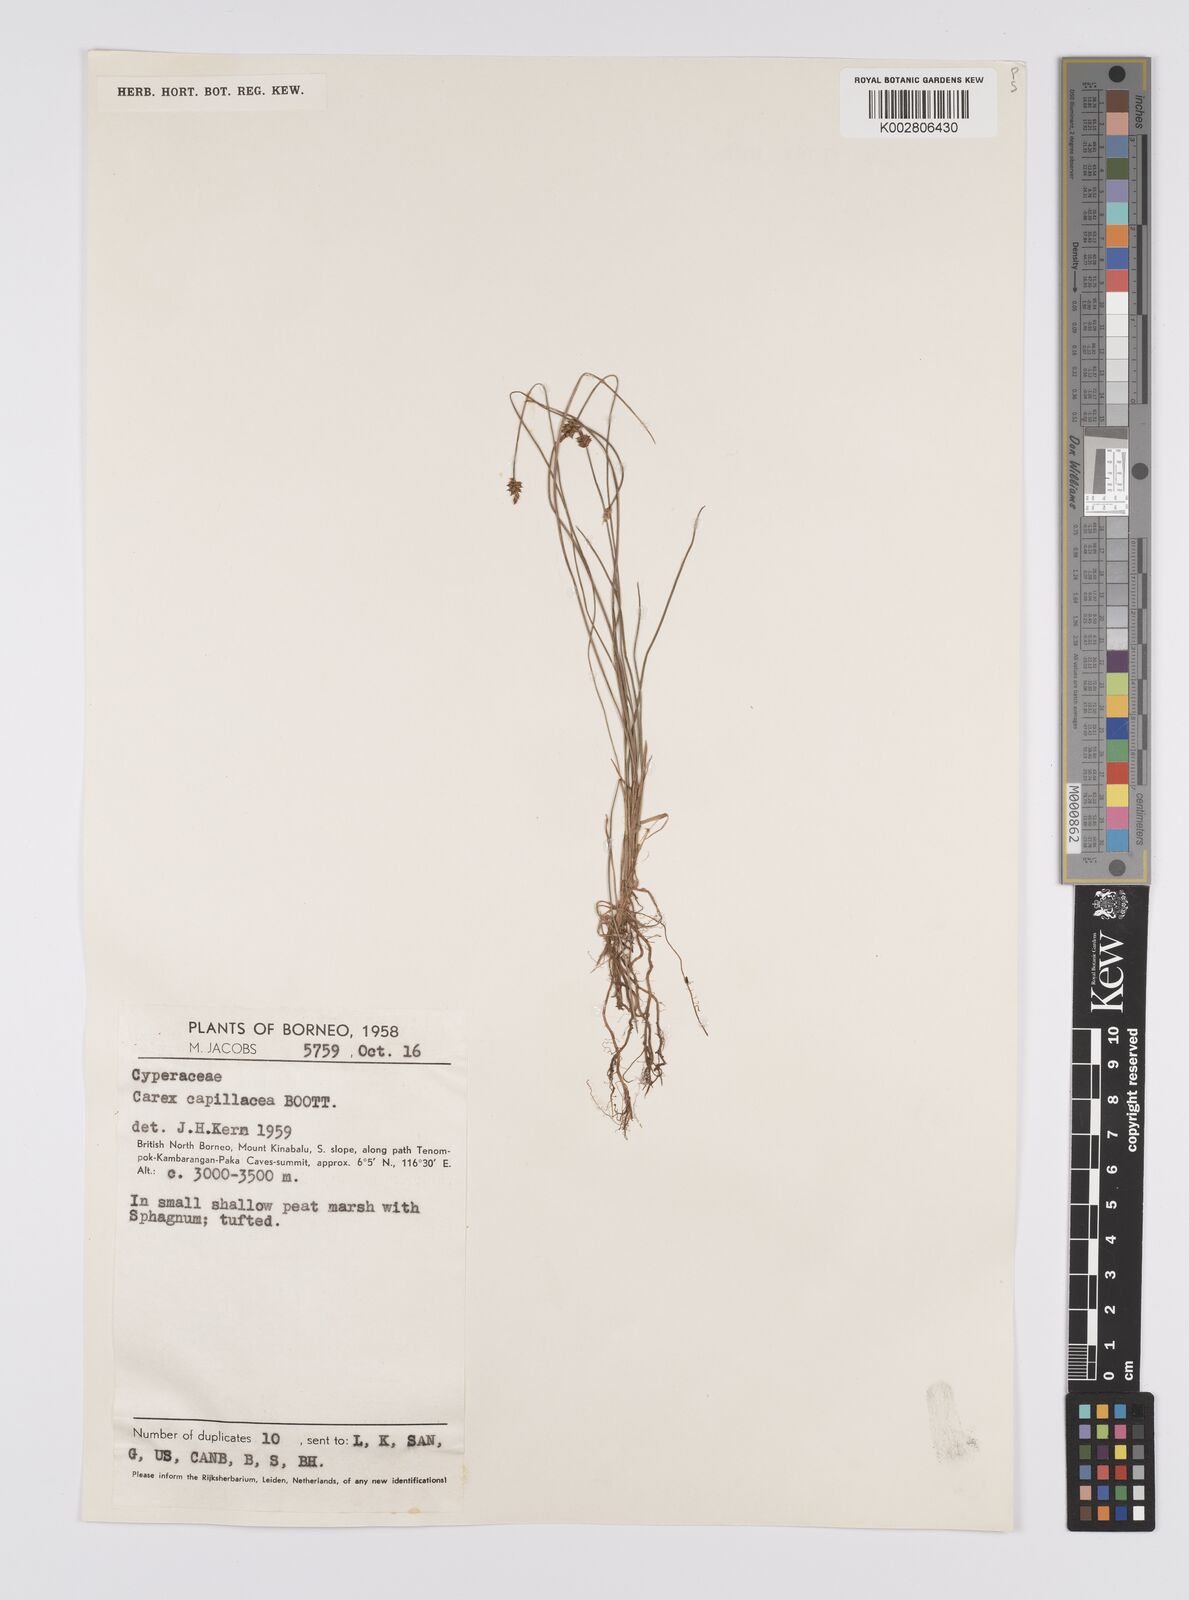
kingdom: Plantae
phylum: Tracheophyta
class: Liliopsida
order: Poales
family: Cyperaceae
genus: Carex
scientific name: Carex capillacea
